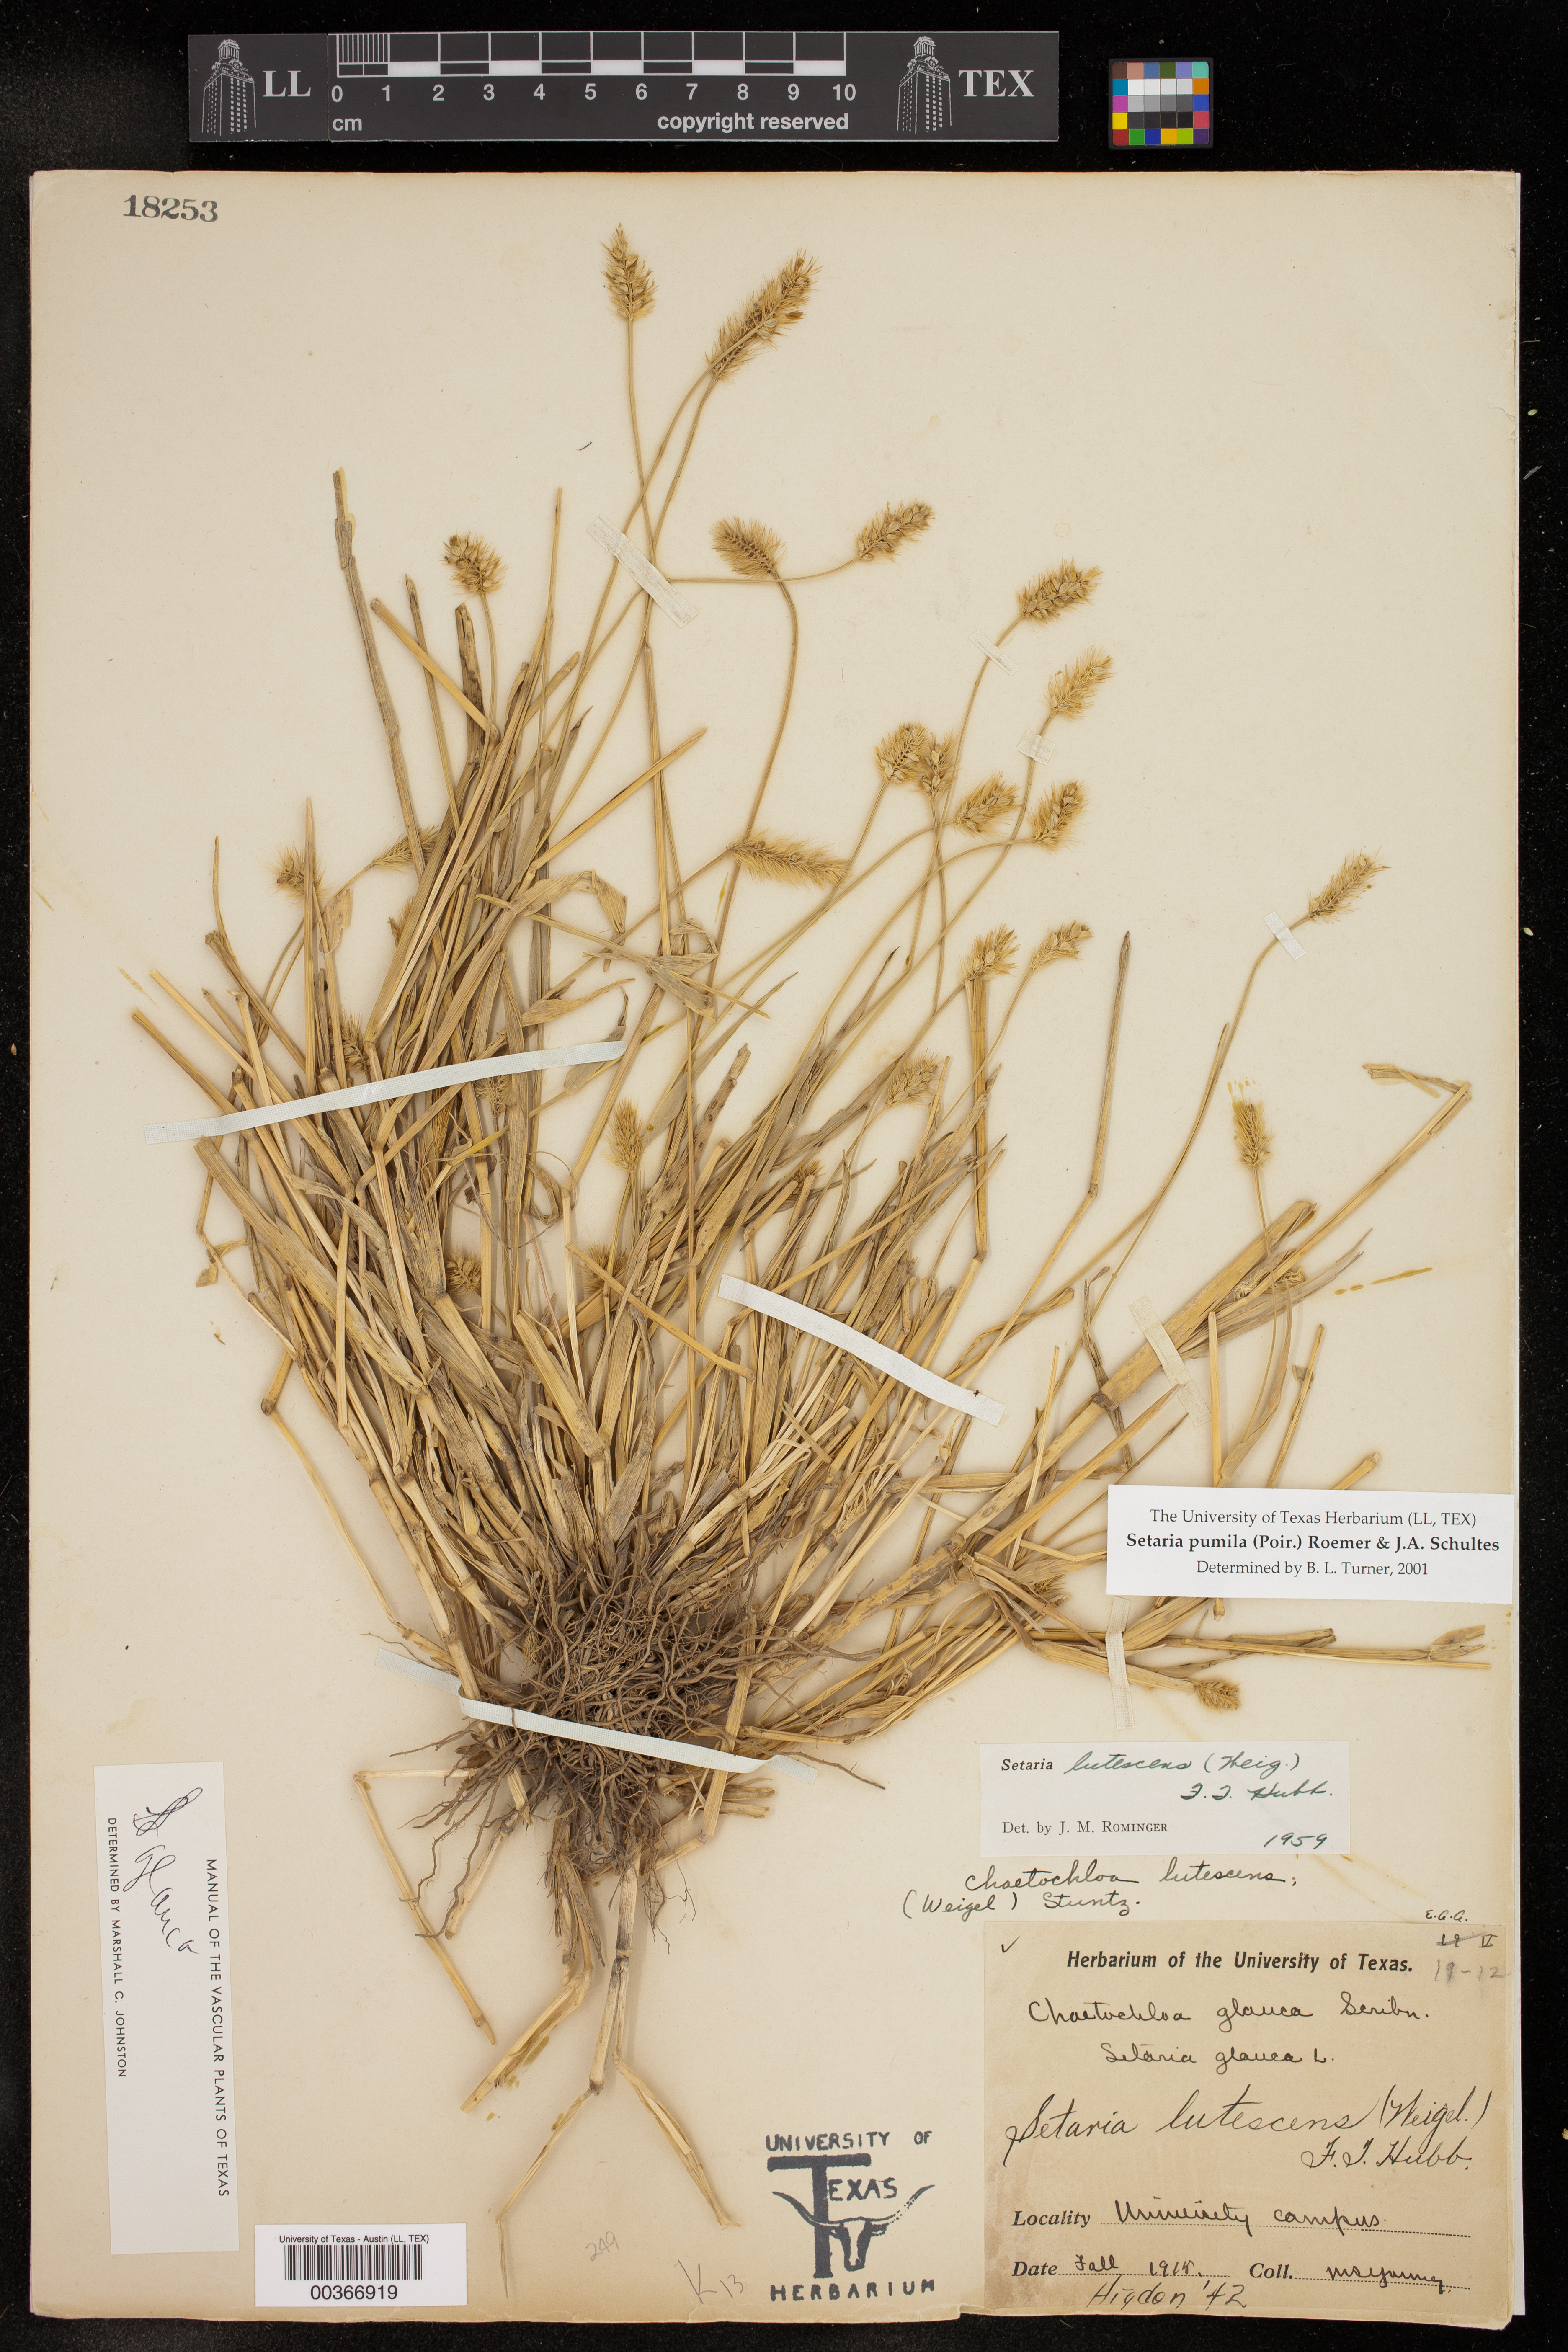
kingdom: Plantae
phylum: Tracheophyta
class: Liliopsida
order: Poales
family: Poaceae
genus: Setaria
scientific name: Setaria pumila
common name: Yellow bristle-grass
